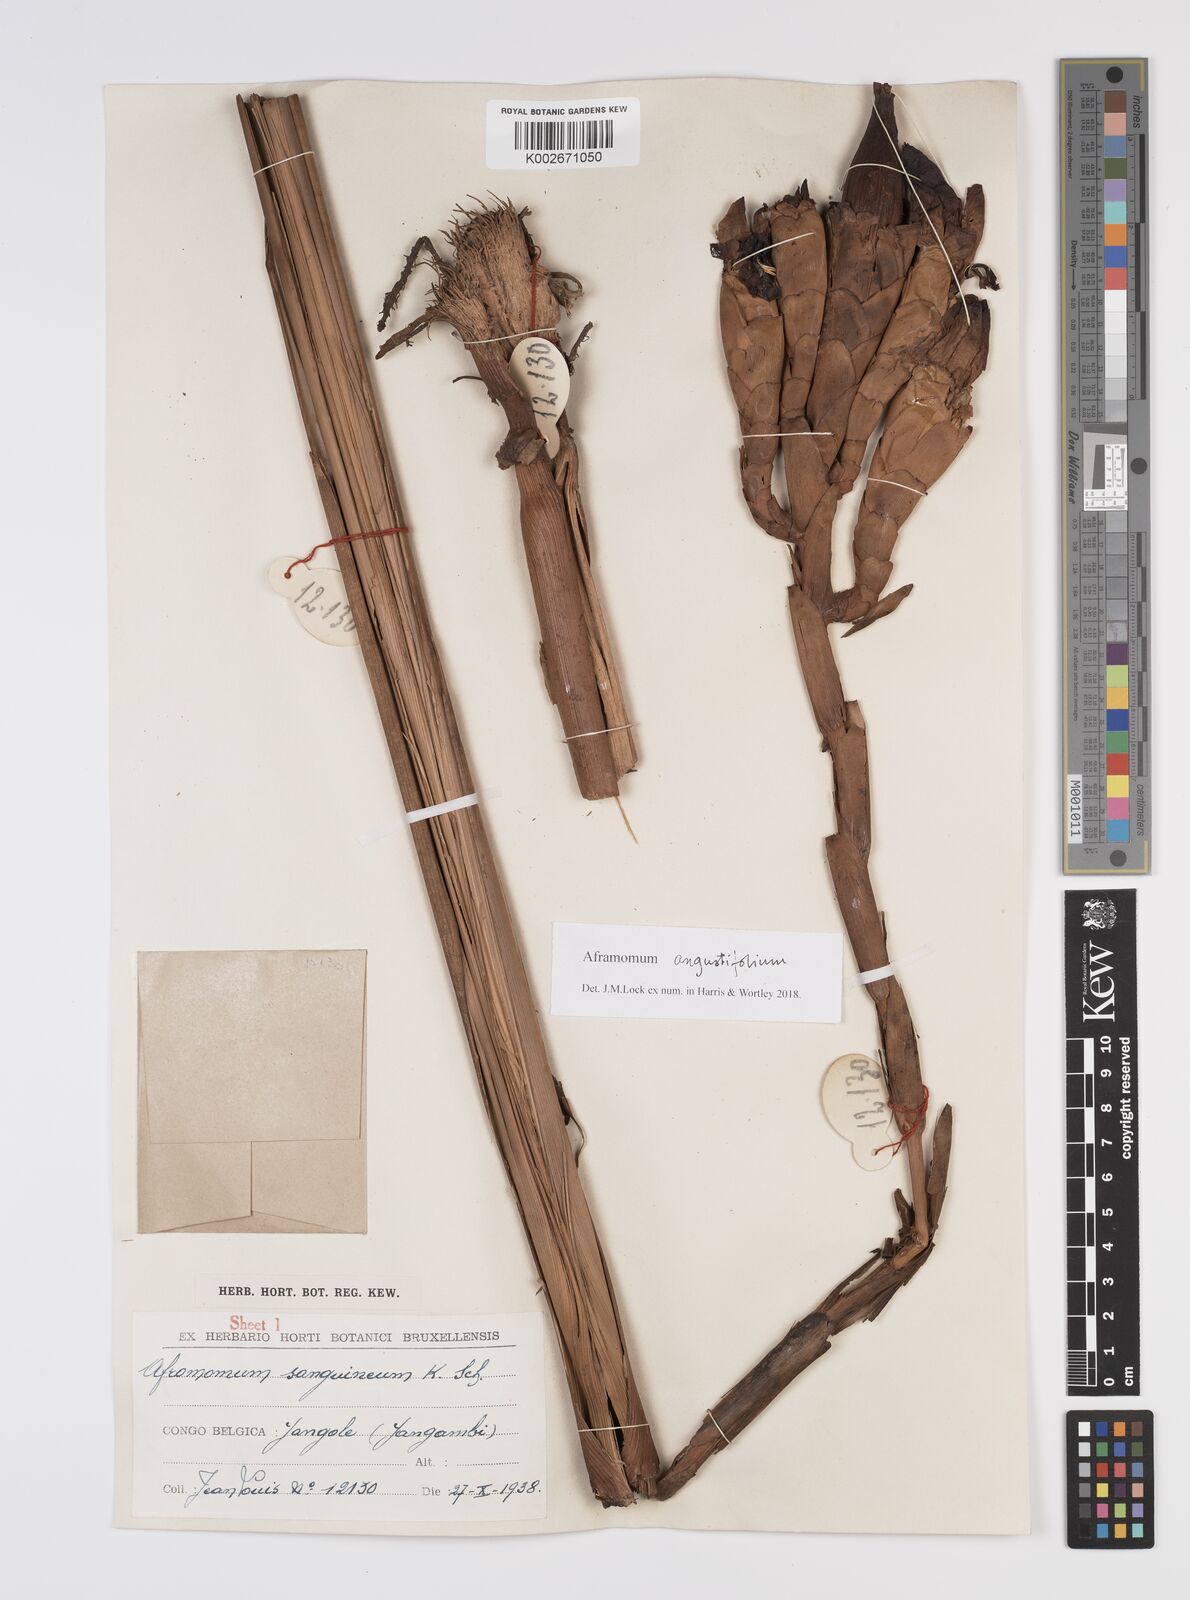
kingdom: Plantae
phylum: Tracheophyta
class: Liliopsida
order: Zingiberales
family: Zingiberaceae
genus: Aframomum
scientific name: Aframomum angustifolium
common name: Guinea grains
